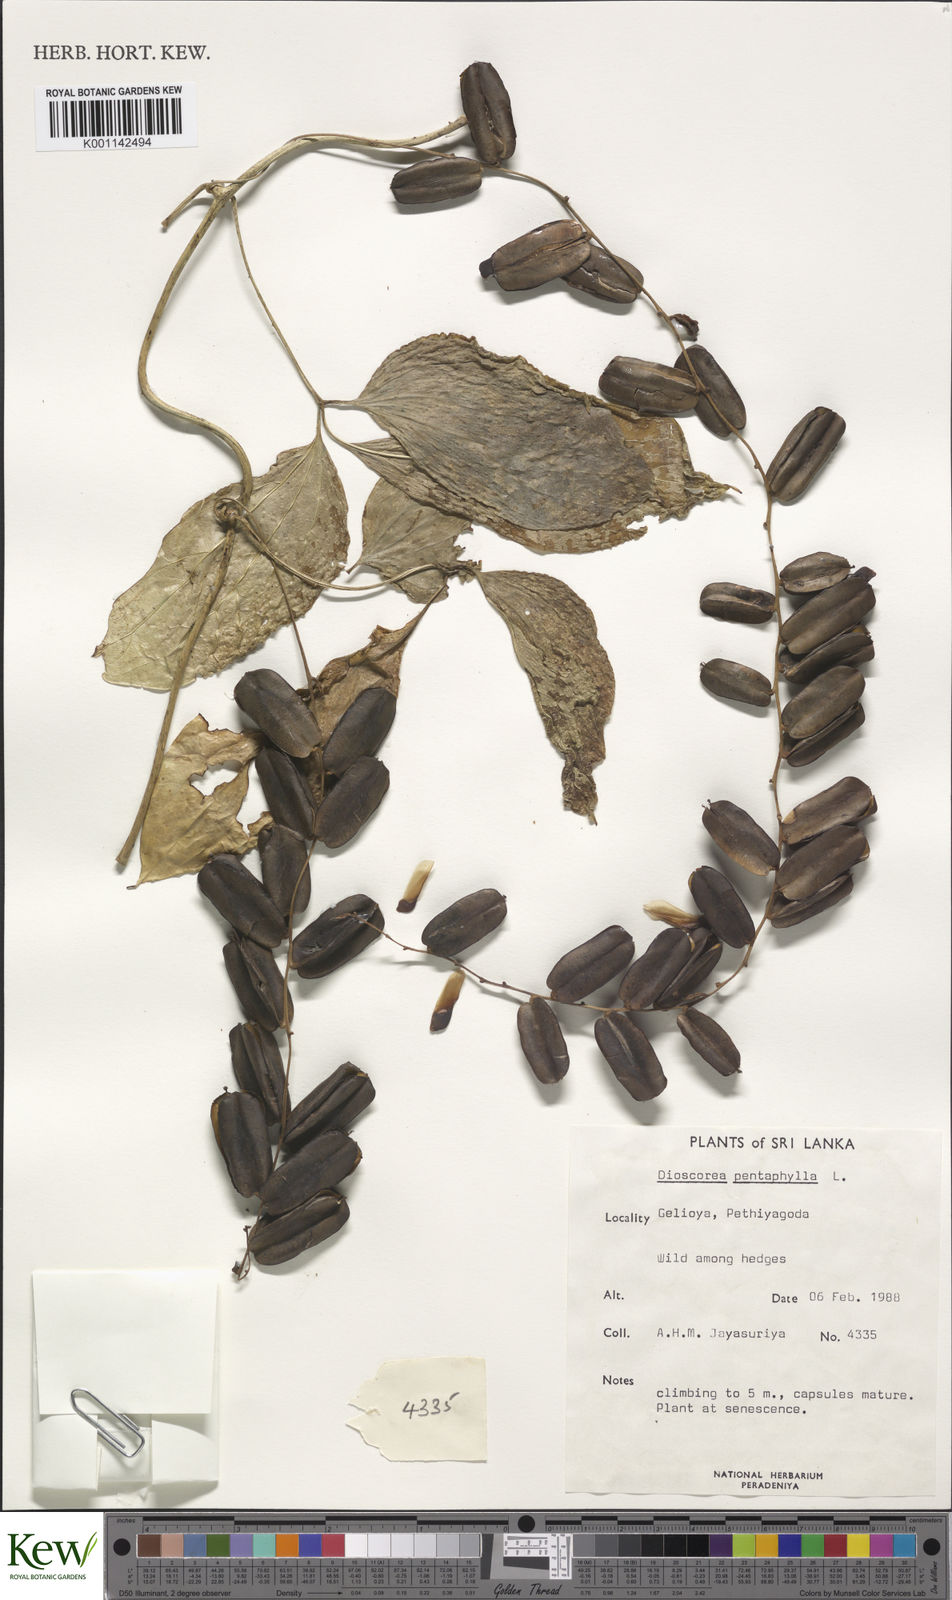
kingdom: Plantae
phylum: Tracheophyta
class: Liliopsida
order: Dioscoreales
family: Dioscoreaceae
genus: Dioscorea
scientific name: Dioscorea pentaphylla
